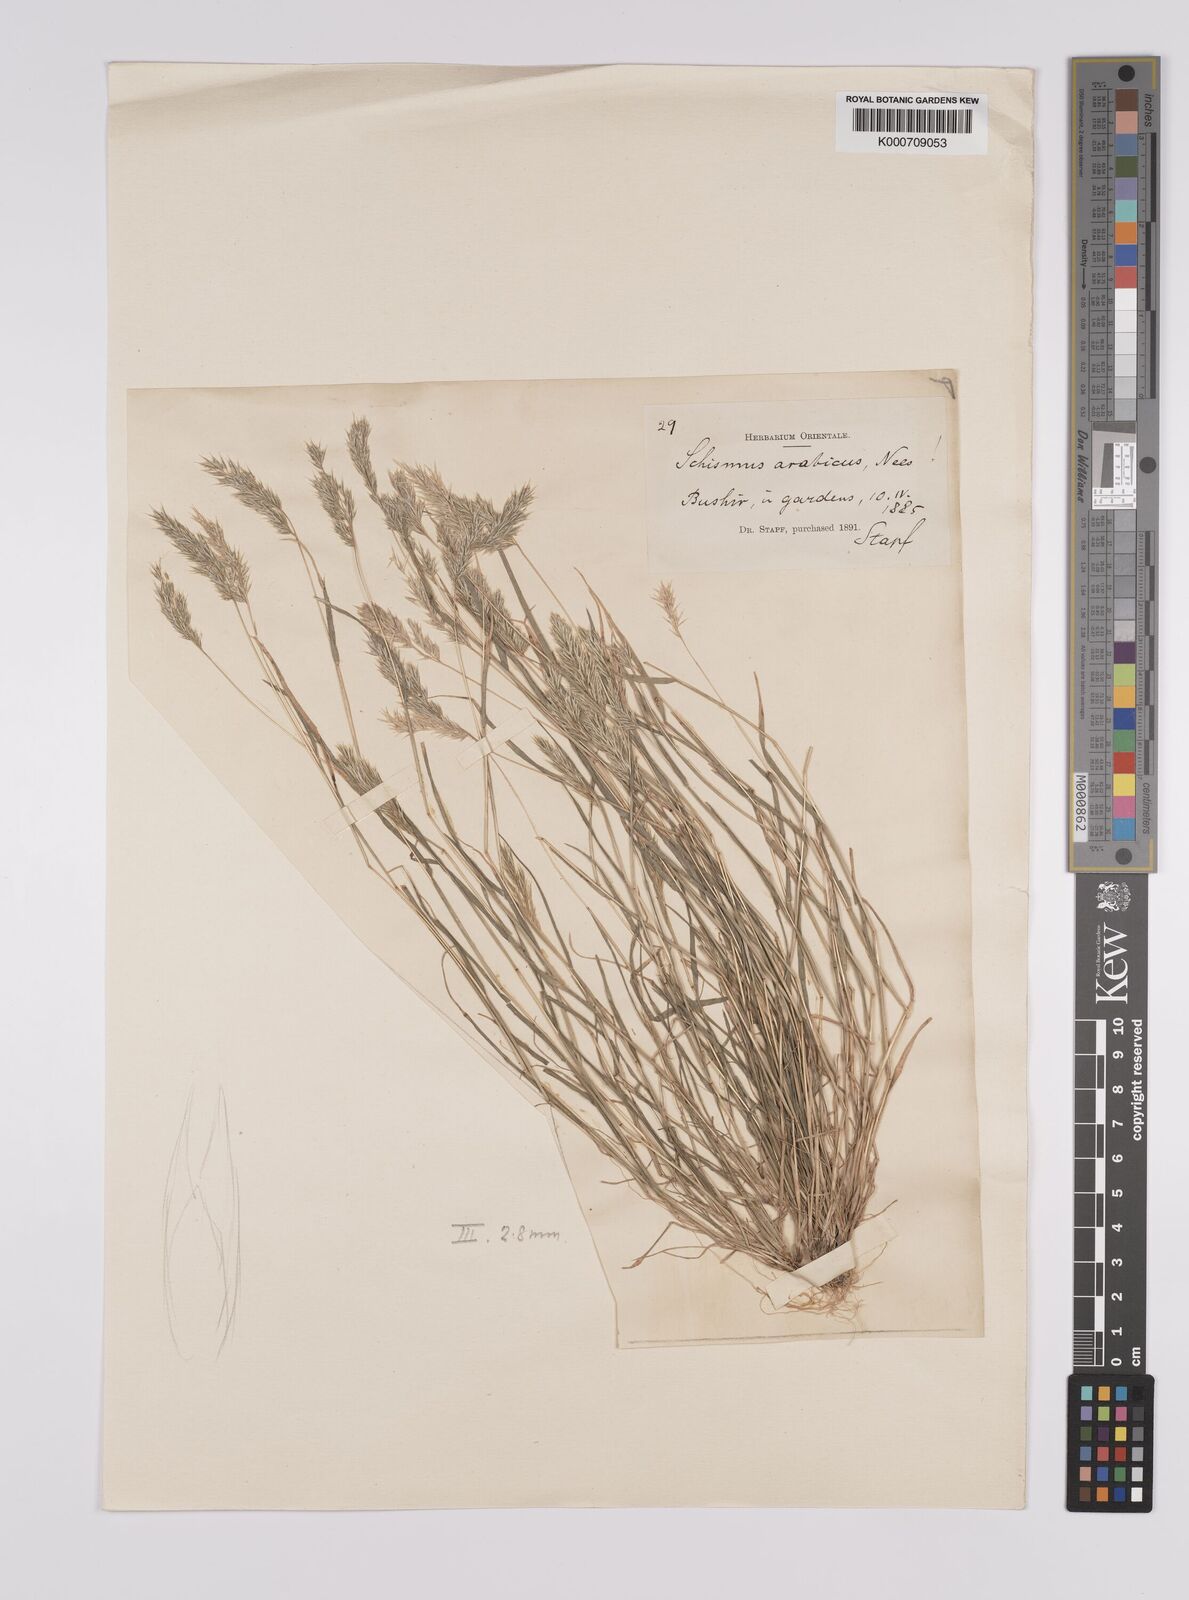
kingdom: Plantae
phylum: Tracheophyta
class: Liliopsida
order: Poales
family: Poaceae
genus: Schismus
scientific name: Schismus arabicus
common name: Arabian schismus
